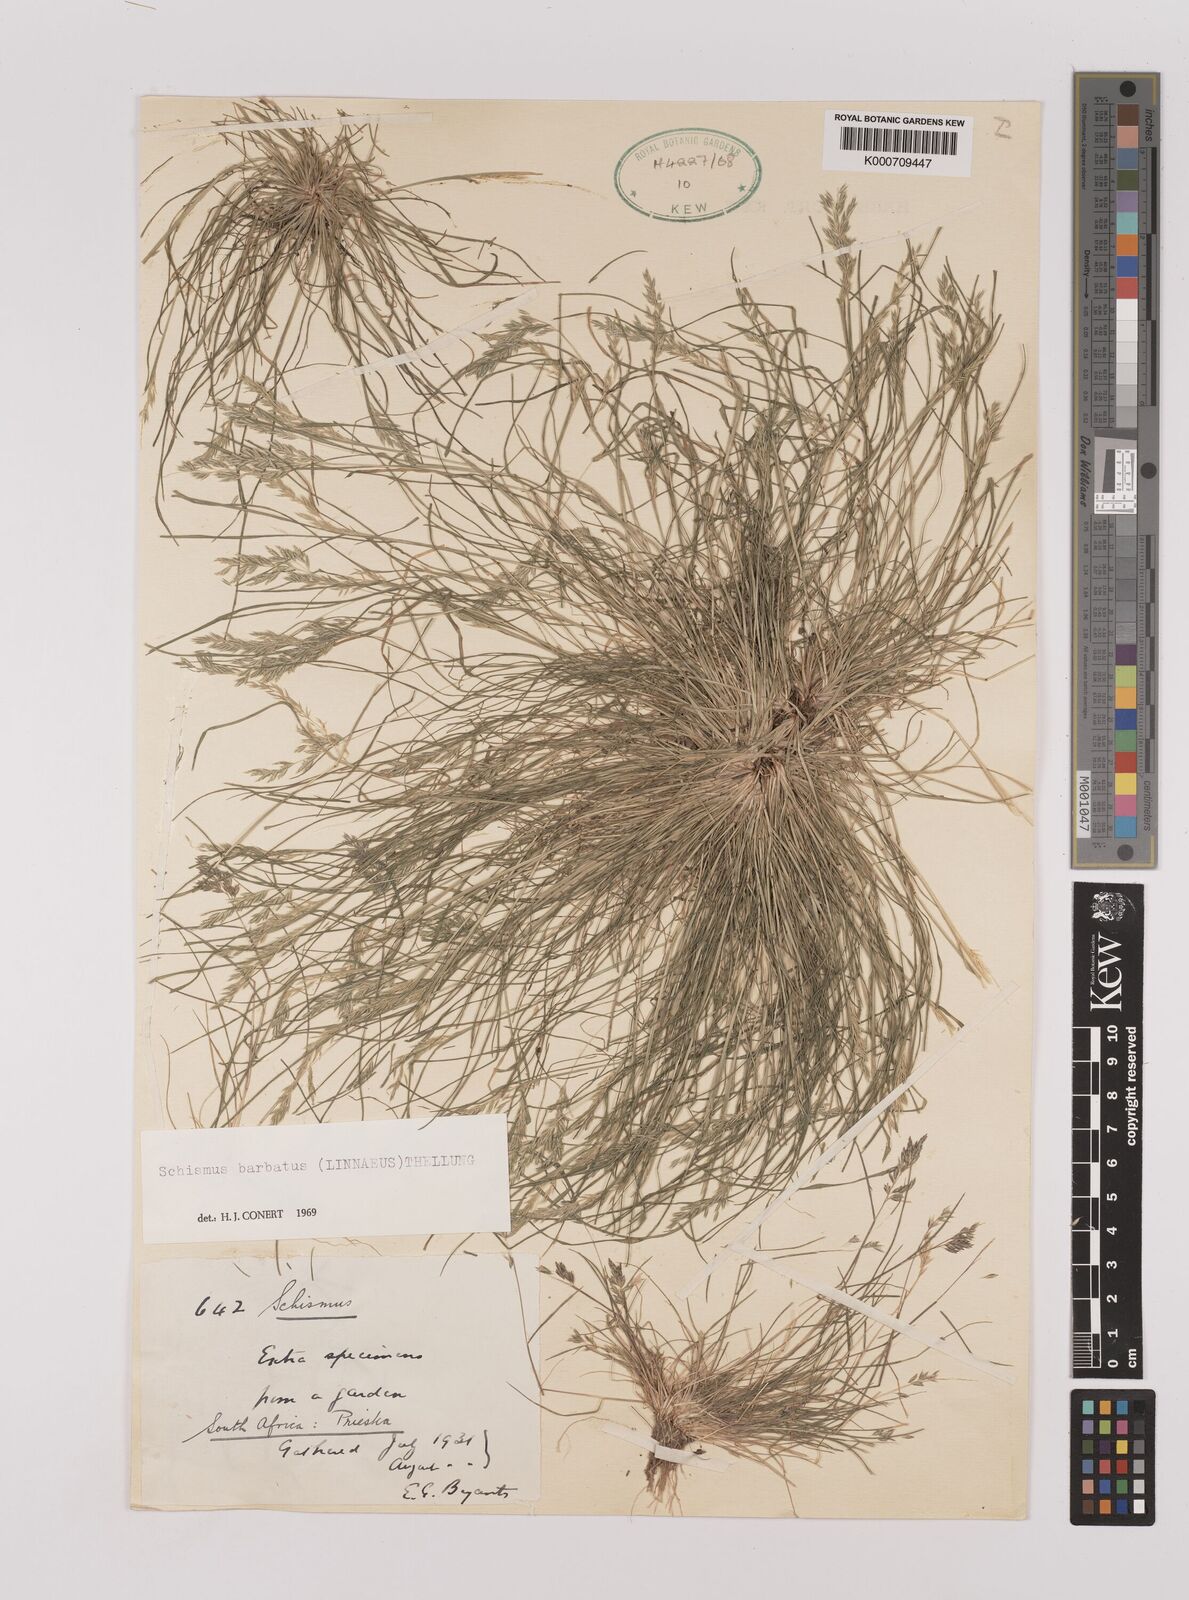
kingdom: Plantae
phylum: Tracheophyta
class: Liliopsida
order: Poales
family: Poaceae
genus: Schismus
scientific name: Schismus barbatus
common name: Kelch-grass
